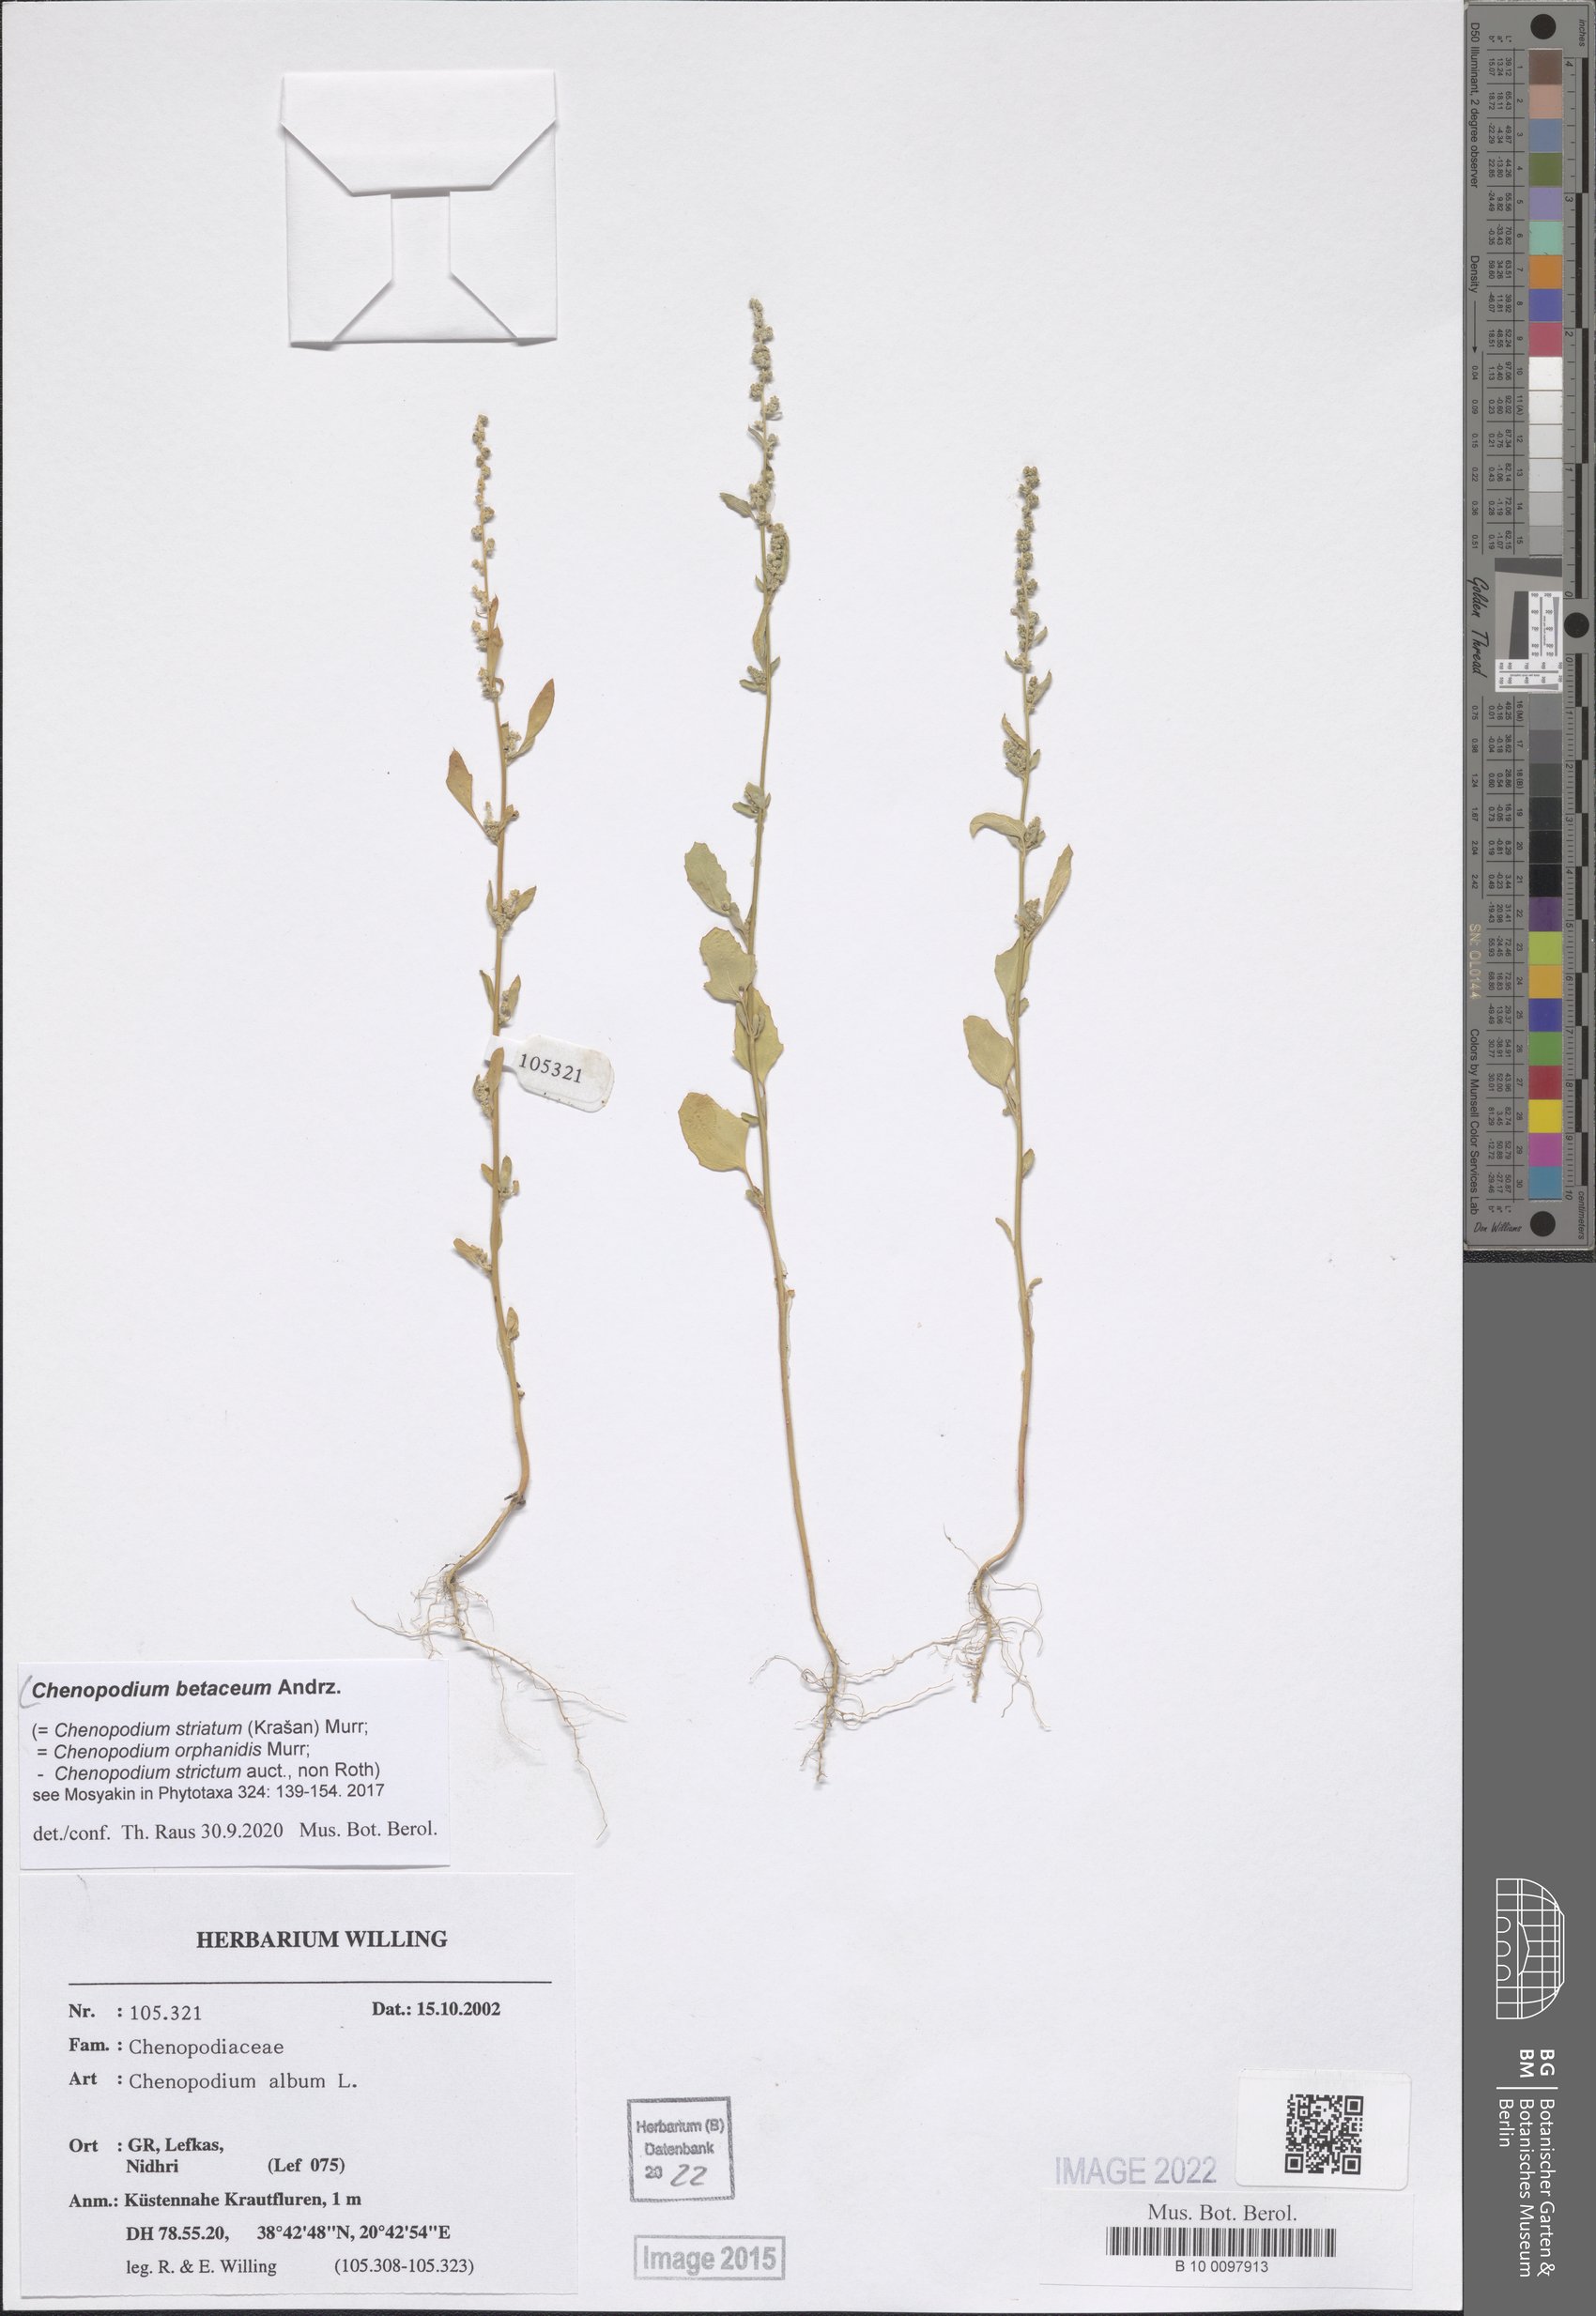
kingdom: Plantae
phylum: Tracheophyta
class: Magnoliopsida
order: Caryophyllales
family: Amaranthaceae
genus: Chenopodium
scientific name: Chenopodium betaceum
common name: Striped goosefoot
